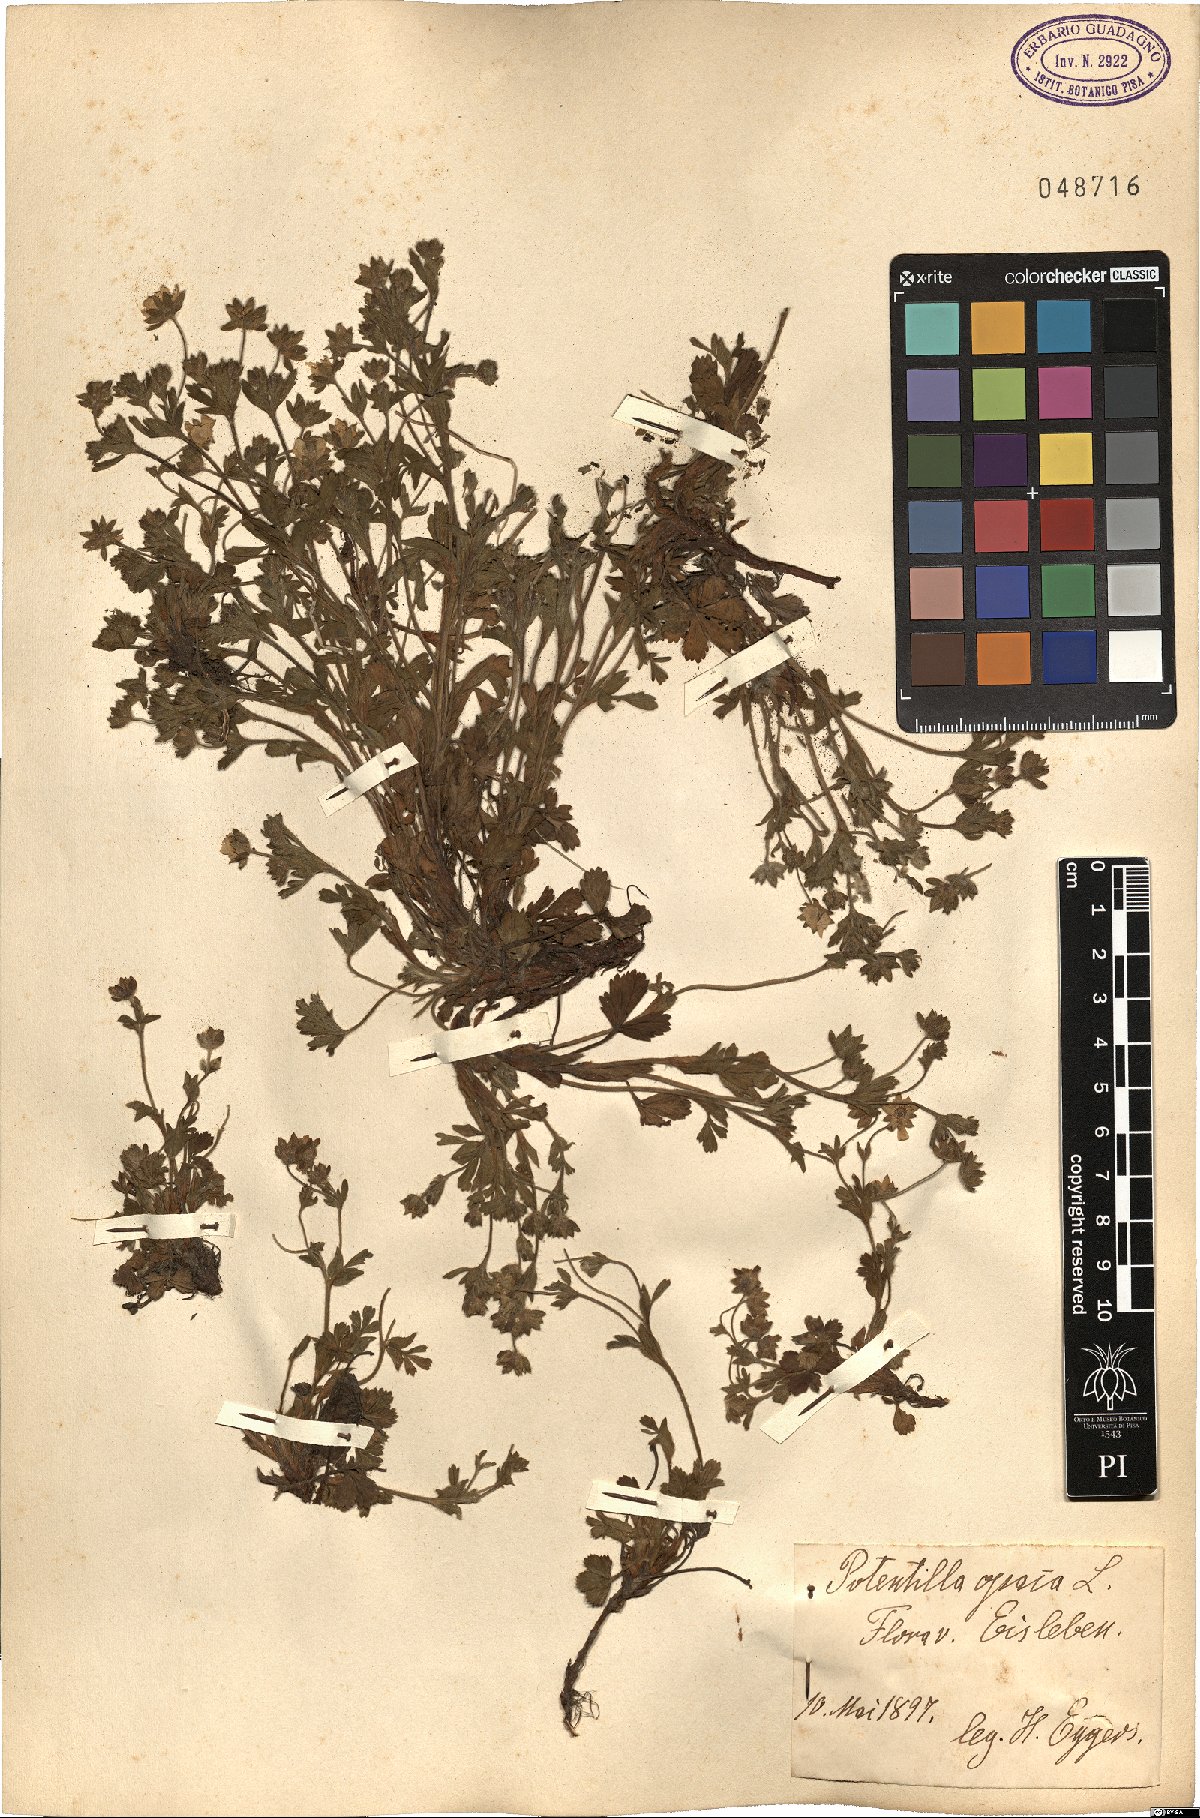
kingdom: Plantae
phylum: Tracheophyta
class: Magnoliopsida
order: Rosales
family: Rosaceae
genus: Potentilla
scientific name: Potentilla
